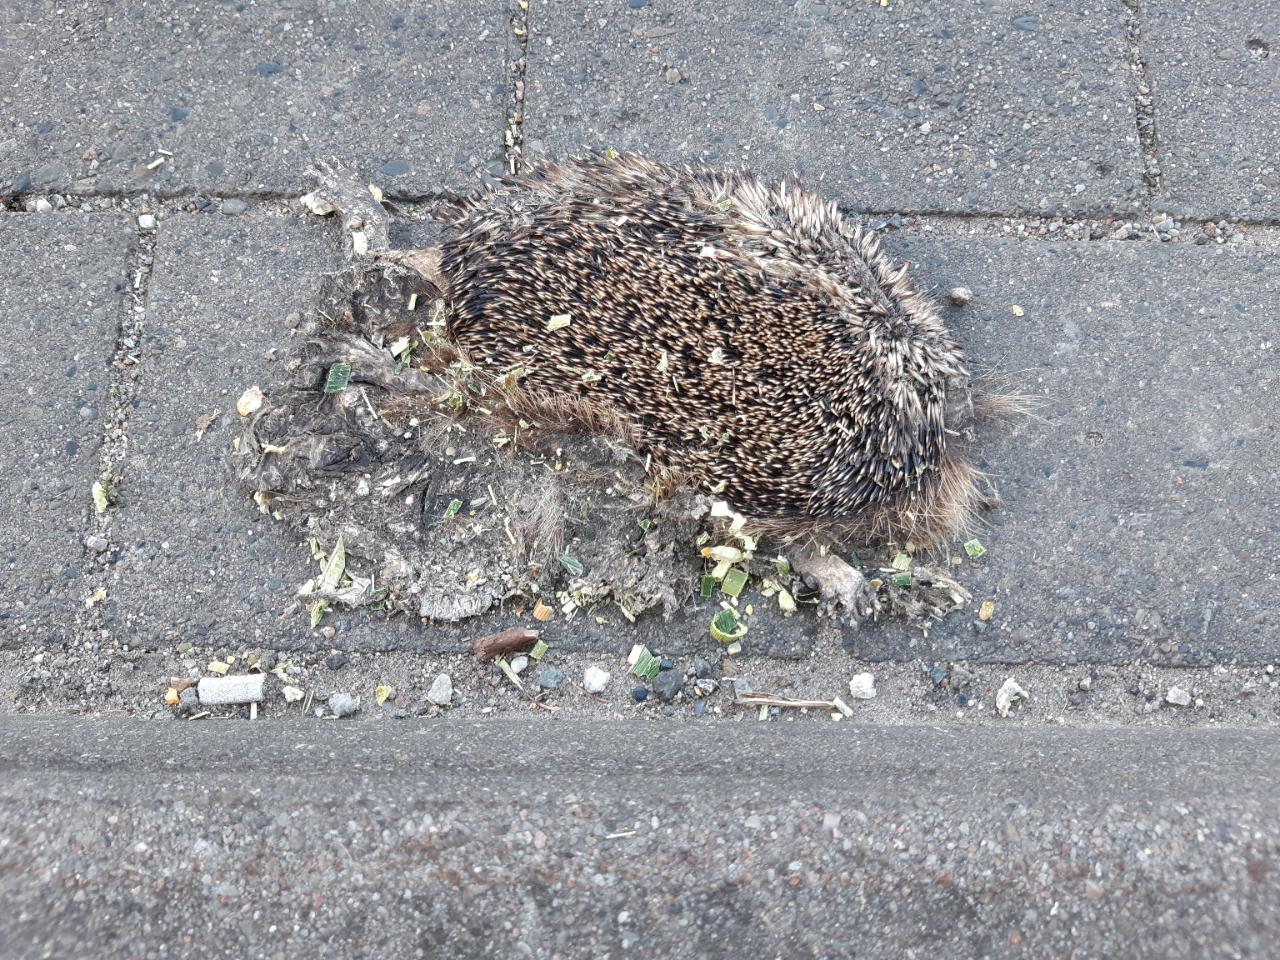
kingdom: Animalia
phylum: Chordata
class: Mammalia
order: Erinaceomorpha
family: Erinaceidae
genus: Erinaceus
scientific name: Erinaceus
